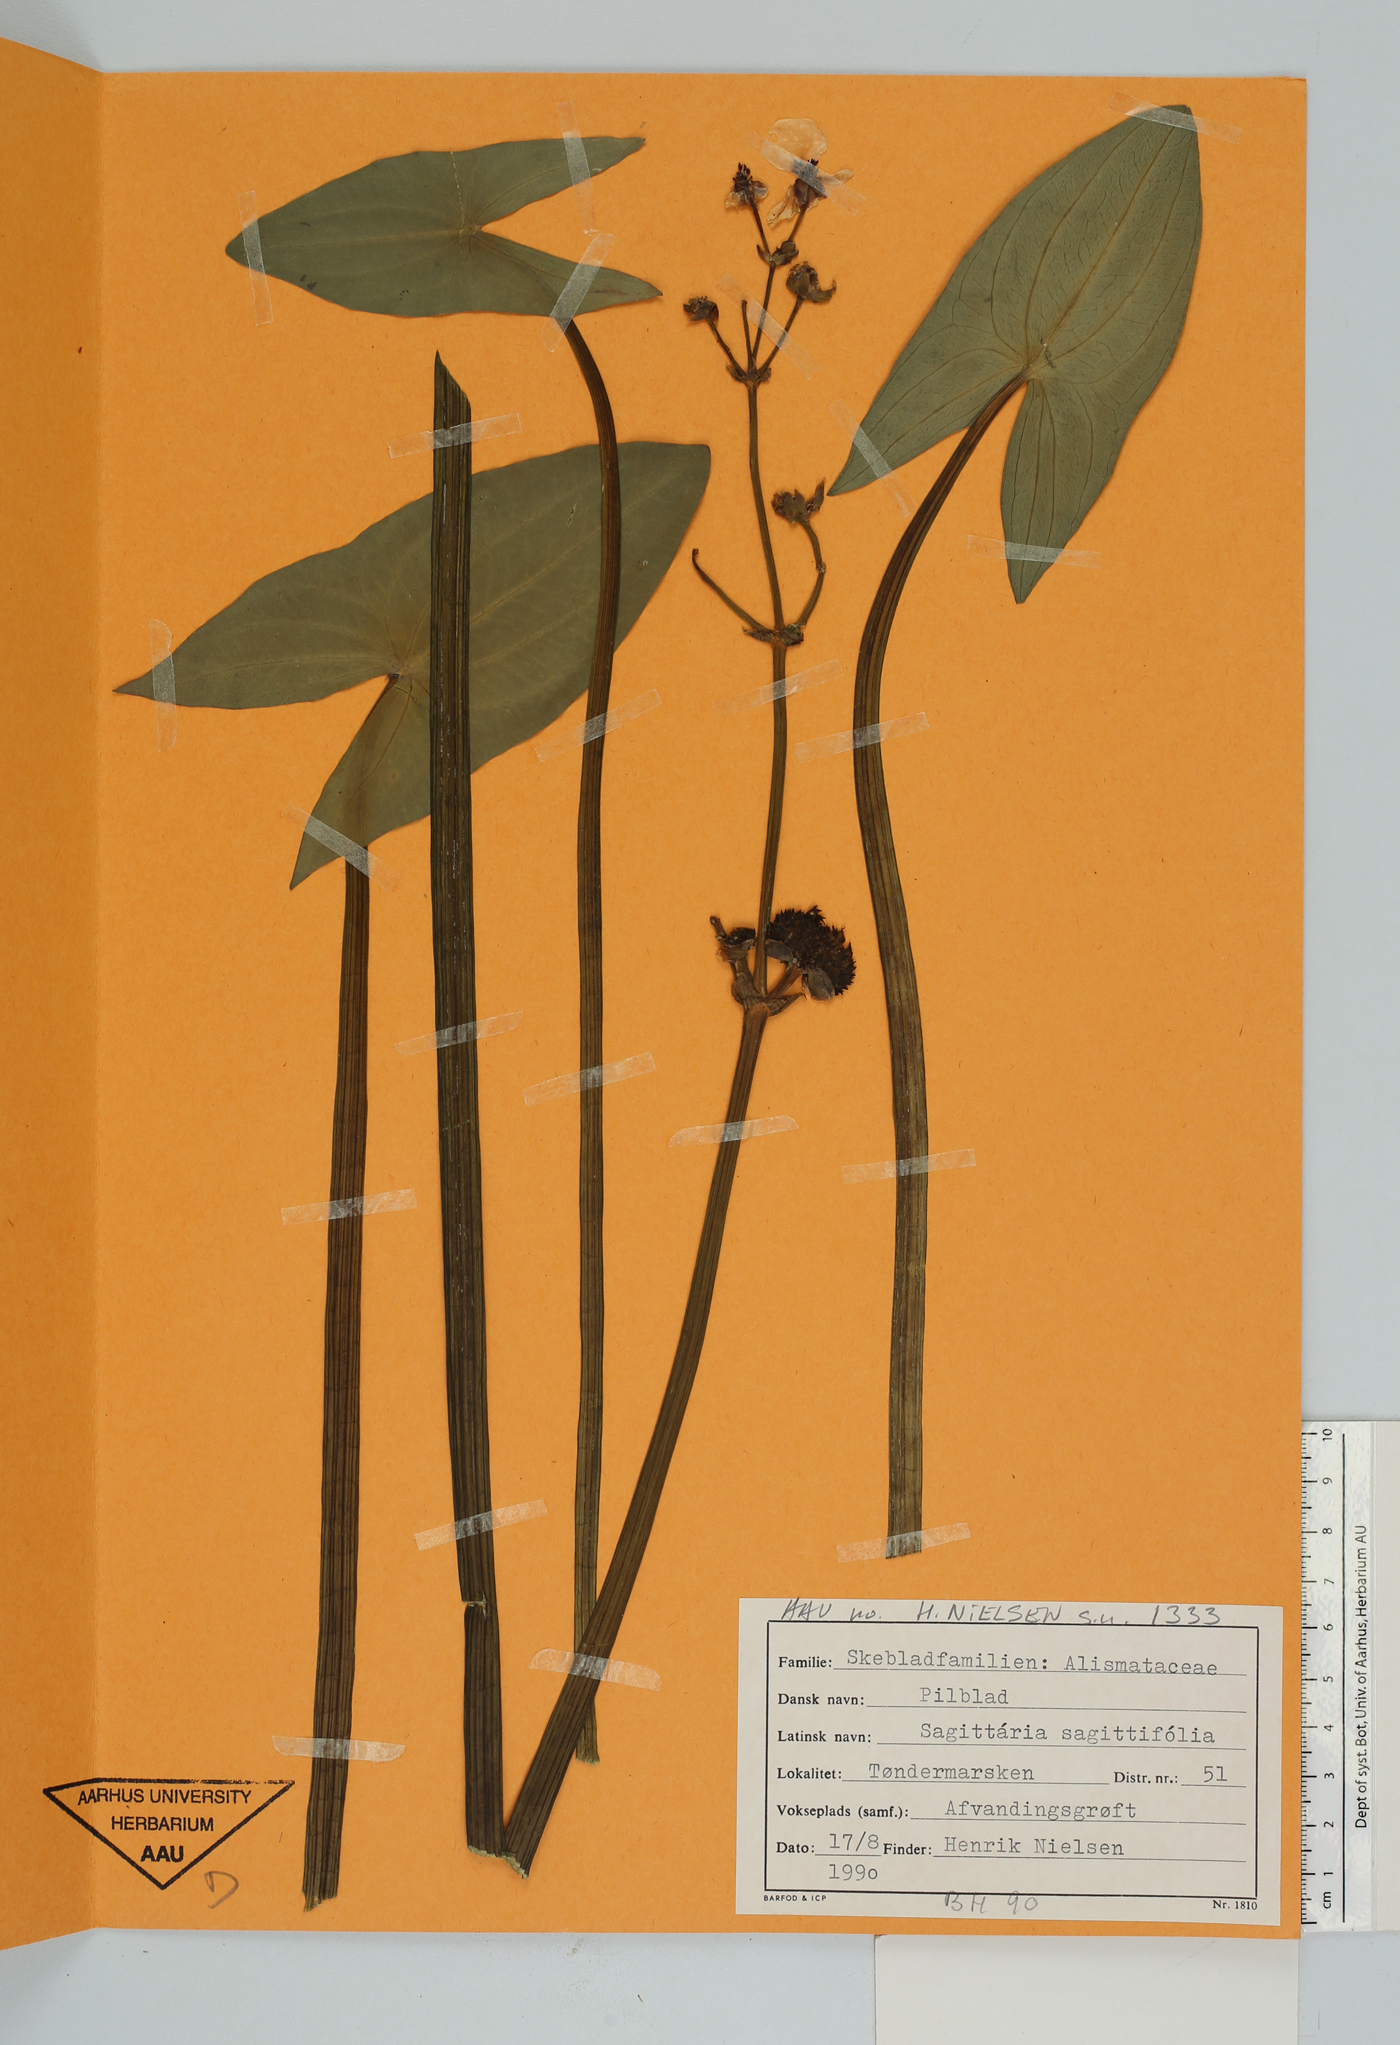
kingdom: Plantae
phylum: Tracheophyta
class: Liliopsida
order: Alismatales
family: Alismataceae
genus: Sagittaria
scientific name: Sagittaria sagittifolia
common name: Arrowhead
